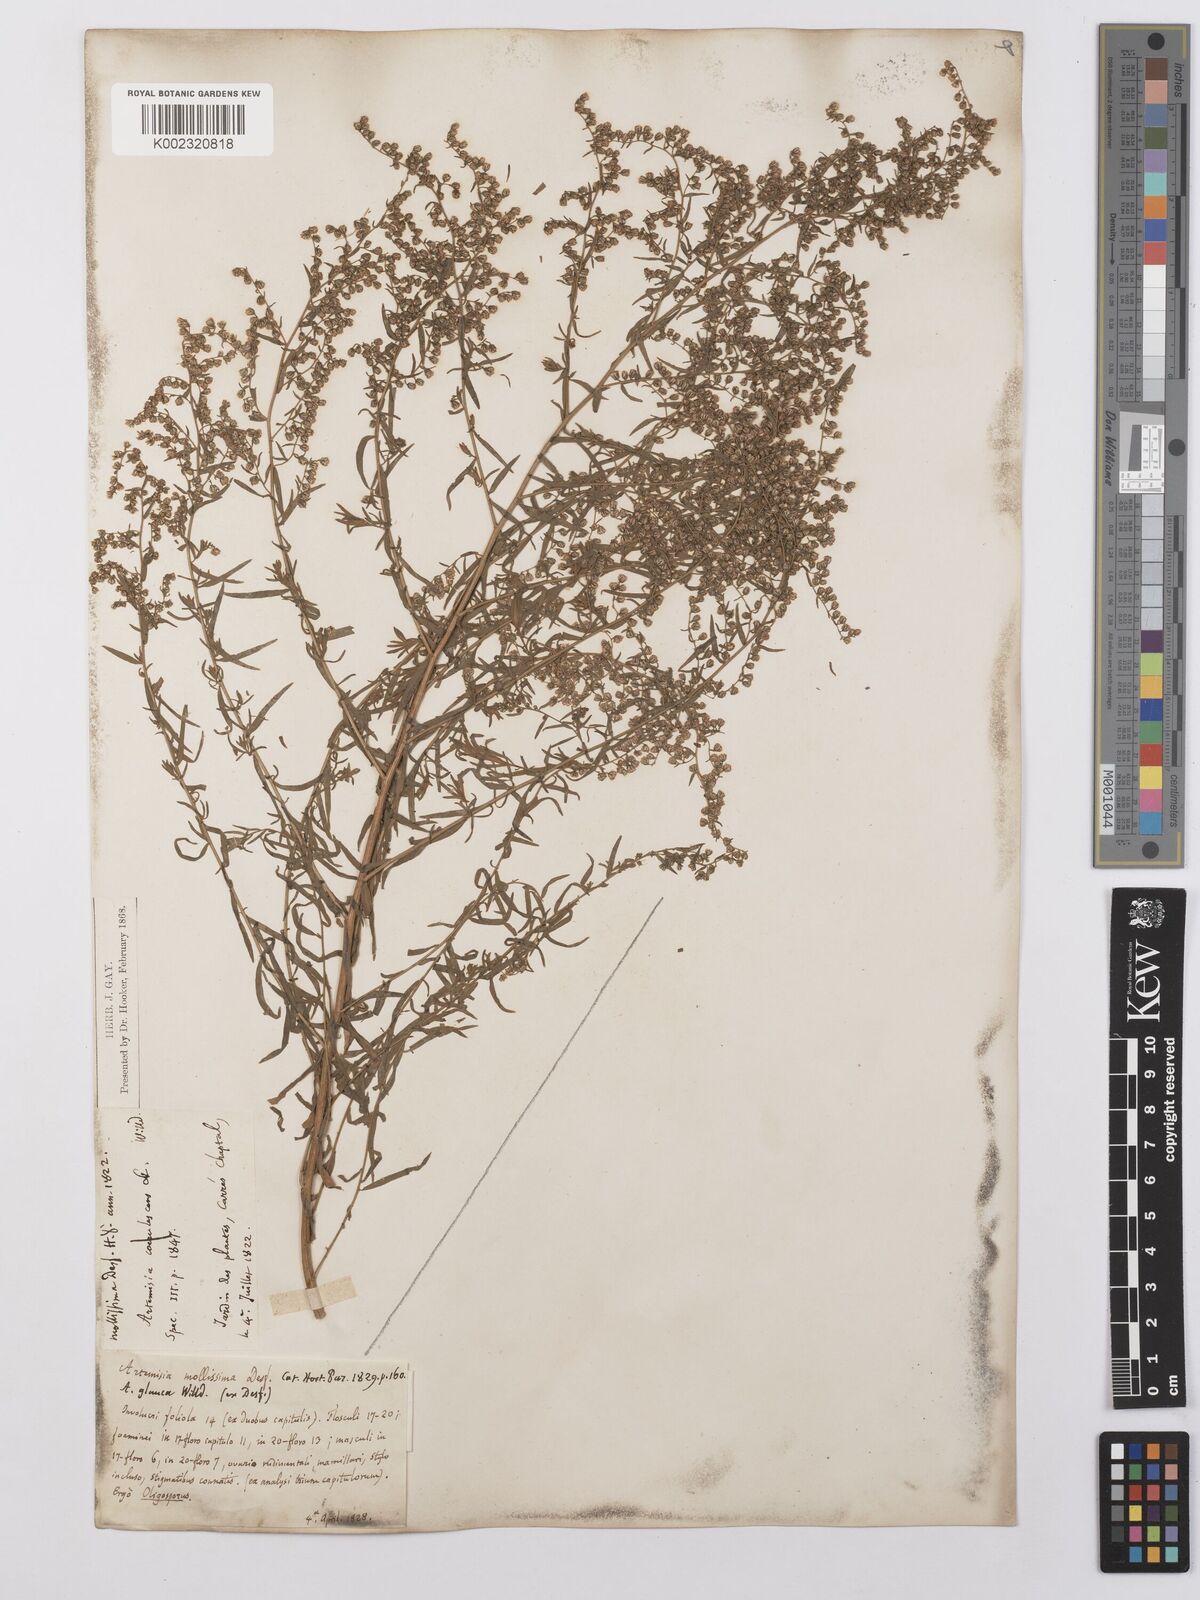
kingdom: Plantae
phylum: Tracheophyta
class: Magnoliopsida
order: Asterales
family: Asteraceae
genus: Artemisia
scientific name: Artemisia glauca
